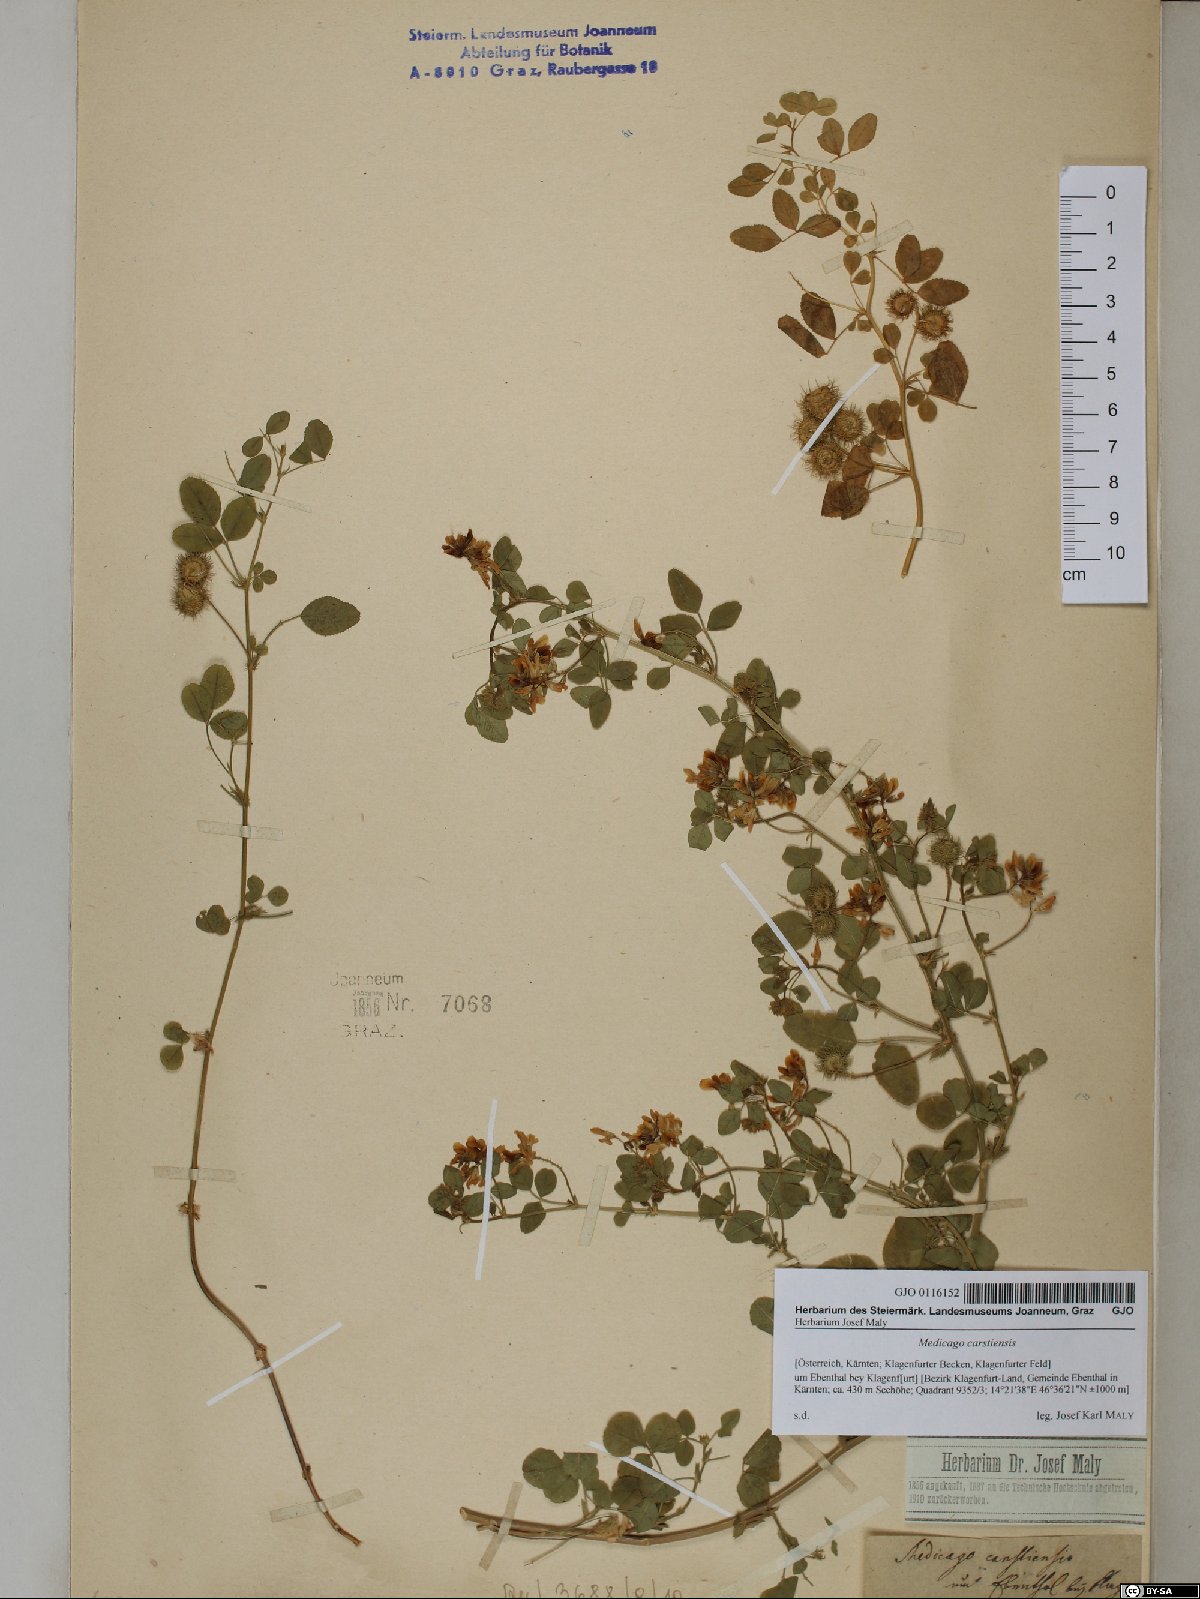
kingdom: Plantae
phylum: Tracheophyta
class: Magnoliopsida
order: Fabales
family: Fabaceae
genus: Medicago
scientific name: Medicago carstiensis
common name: Creeping-rooted medic
